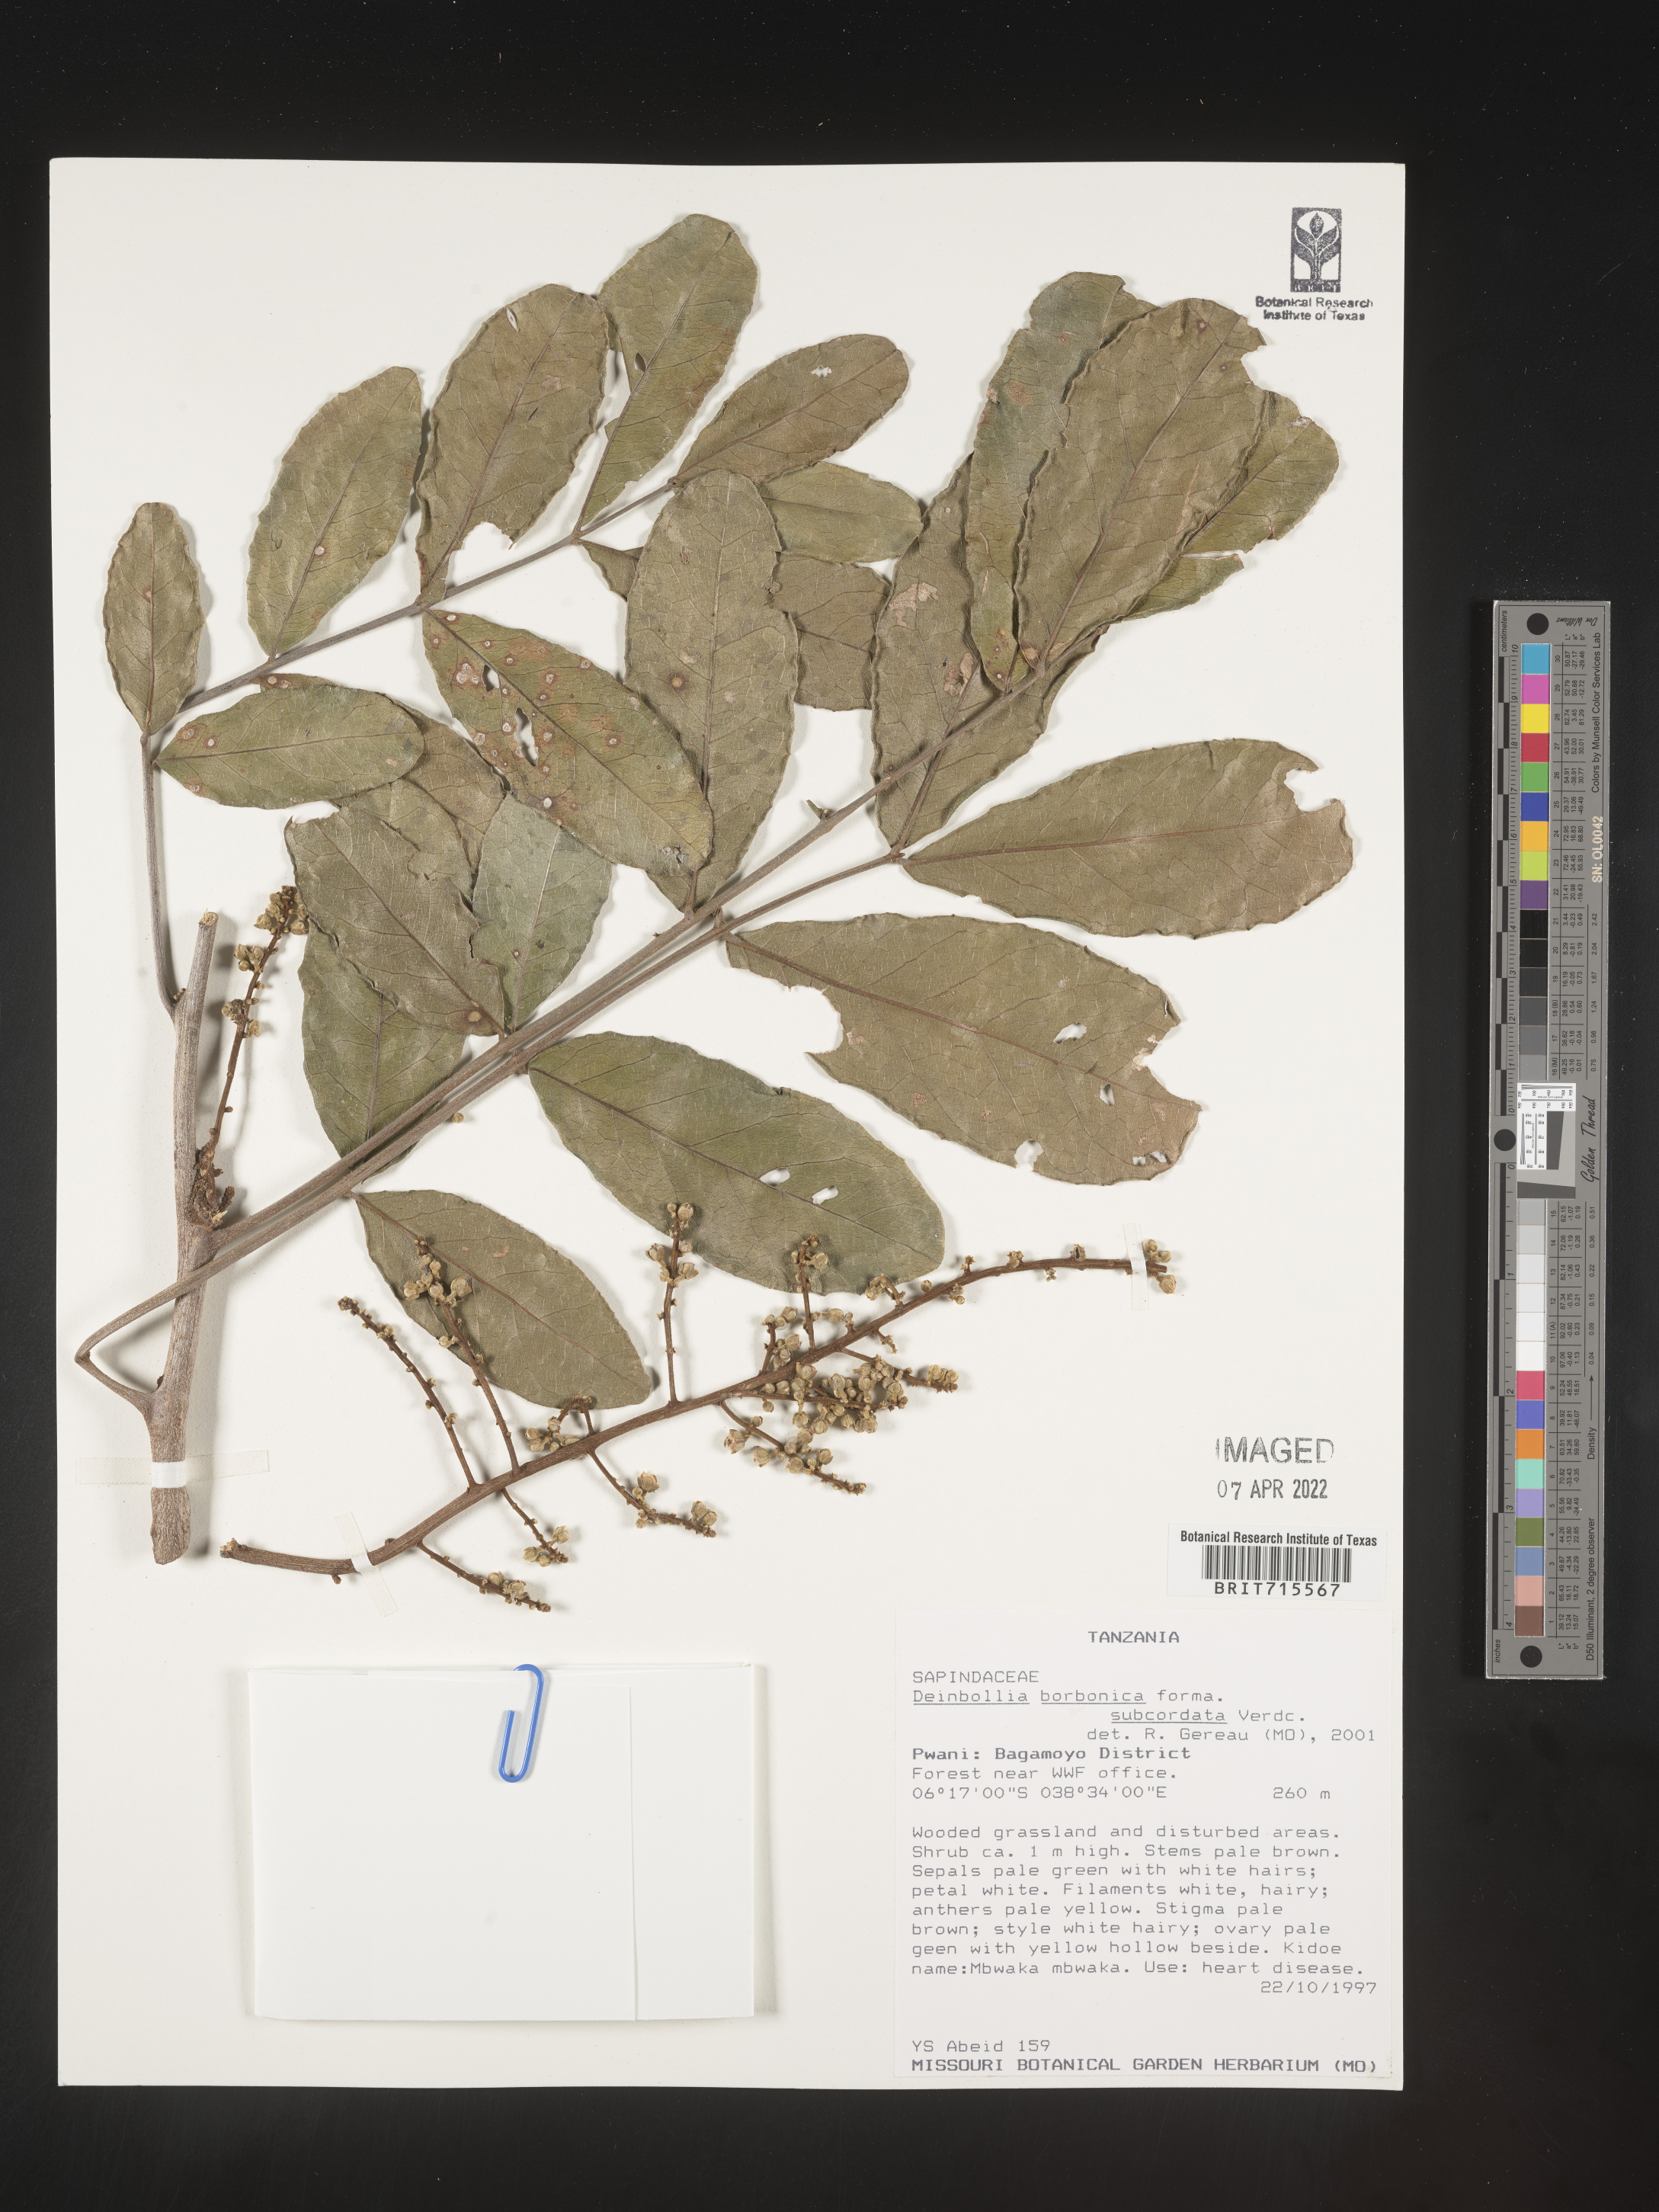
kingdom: Plantae
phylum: Tracheophyta
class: Magnoliopsida
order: Sapindales
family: Sapindaceae
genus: Deinbollia
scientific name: Deinbollia
